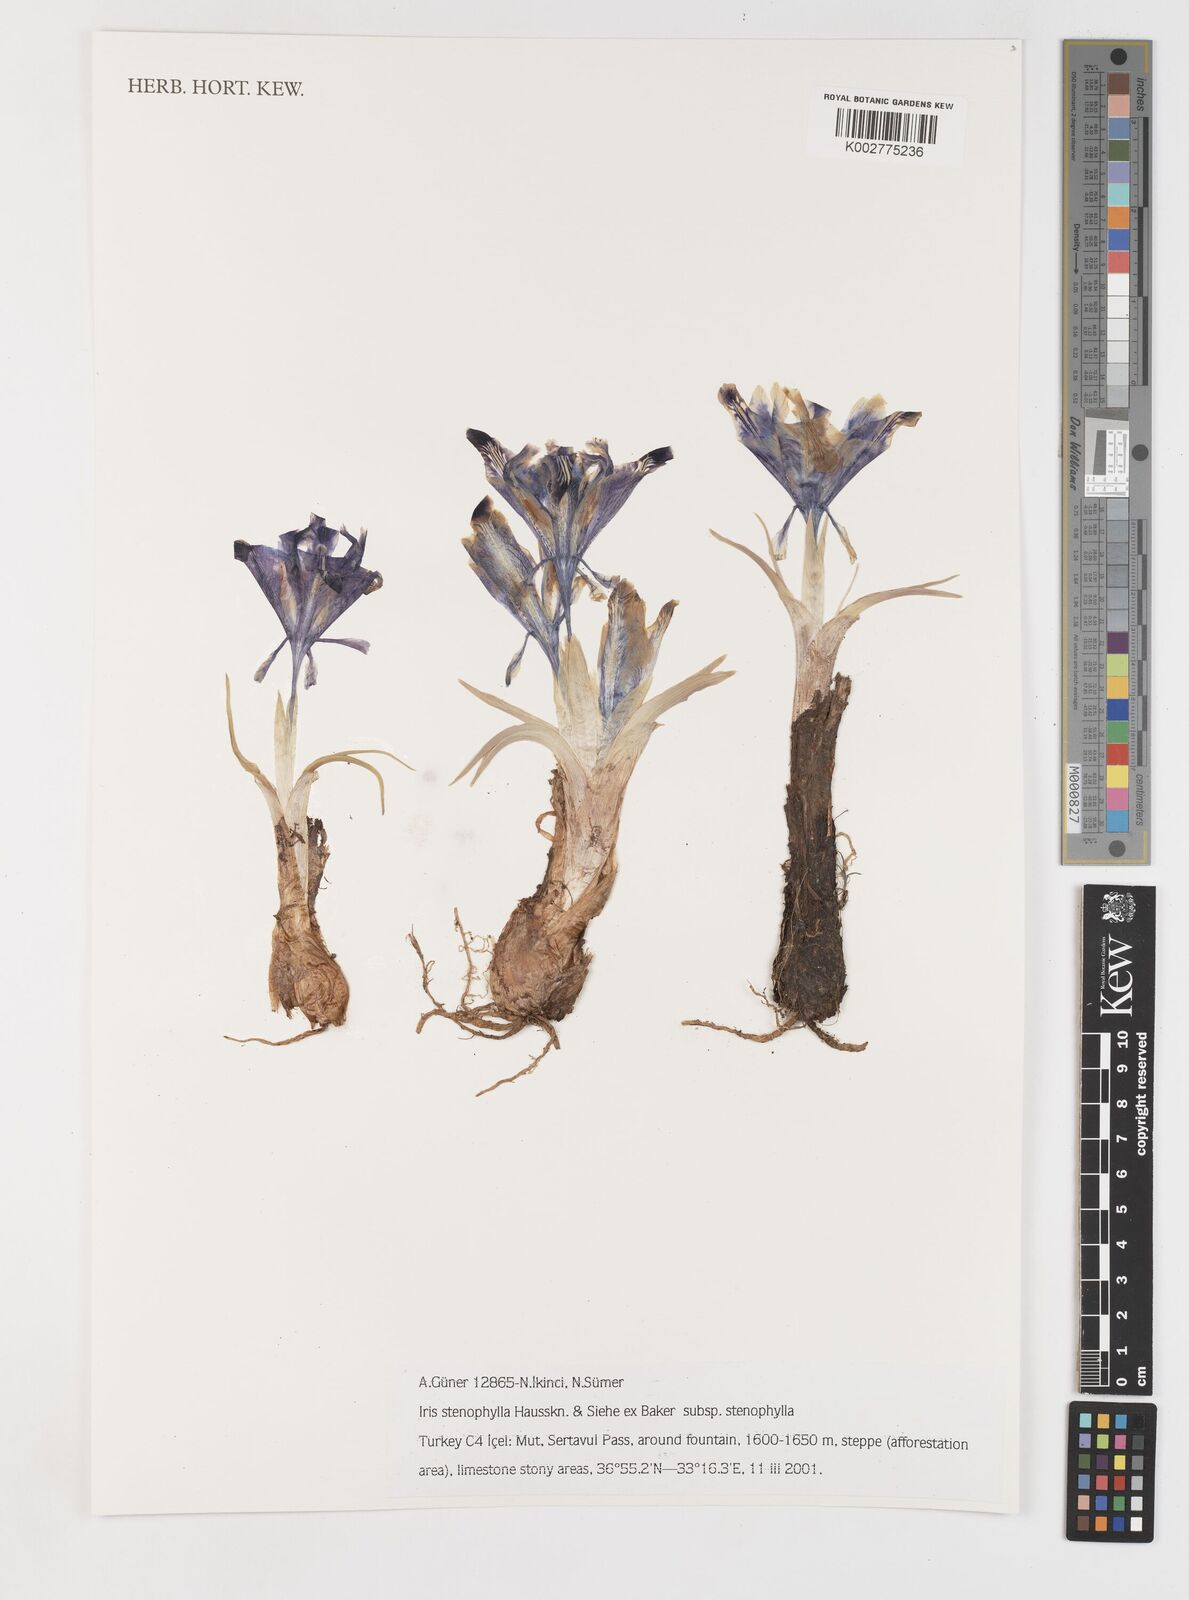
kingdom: Plantae
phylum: Tracheophyta
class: Liliopsida
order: Asparagales
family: Iridaceae
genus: Iris
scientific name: Iris stenophylla
